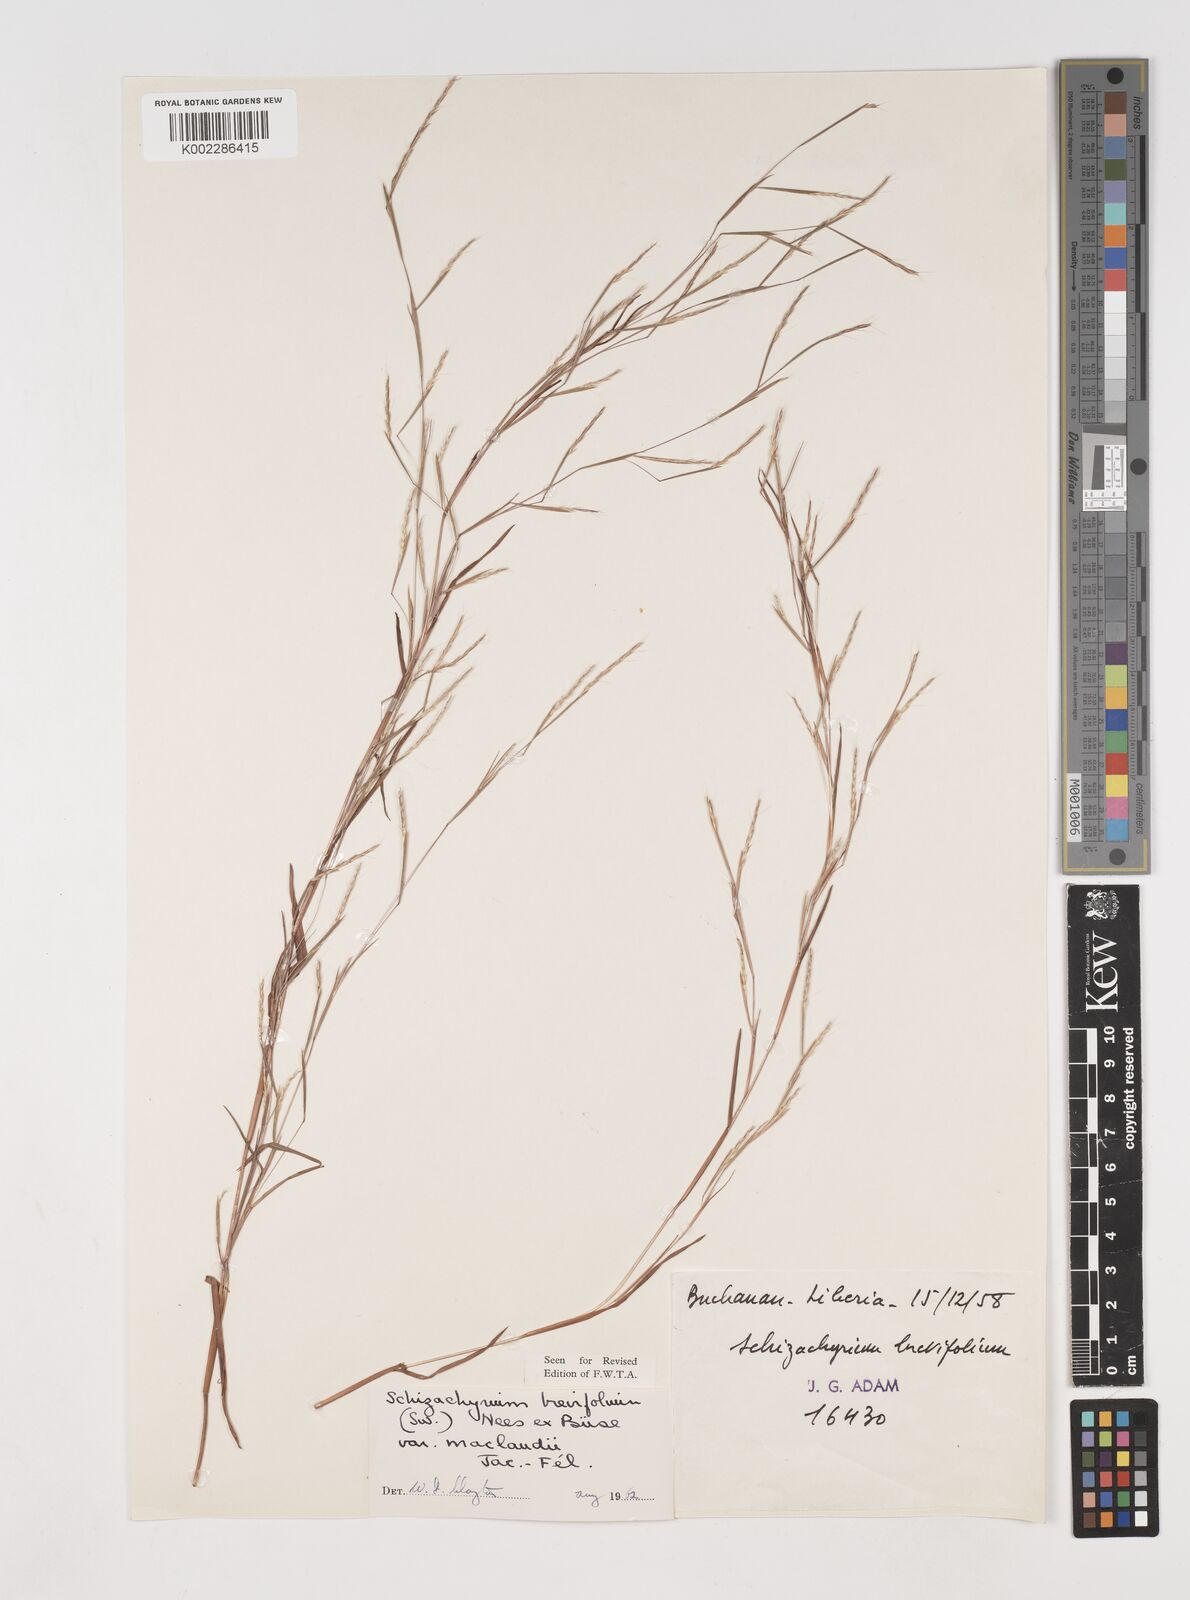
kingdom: Plantae
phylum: Tracheophyta
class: Liliopsida
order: Poales
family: Poaceae
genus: Schizachyrium
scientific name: Schizachyrium maclaudii
